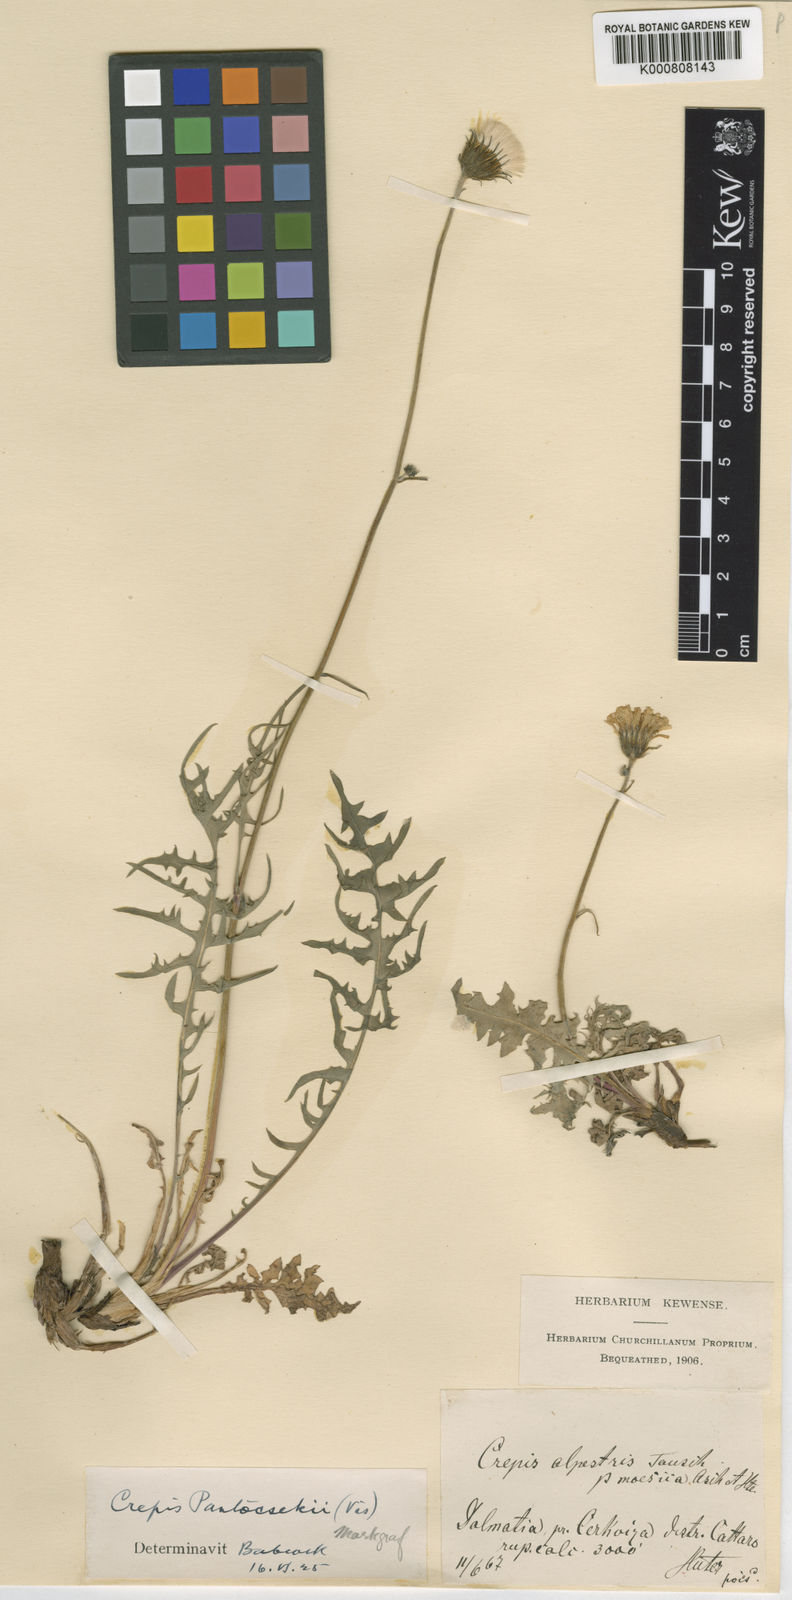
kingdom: Plantae
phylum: Tracheophyta
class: Magnoliopsida
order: Asterales
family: Asteraceae
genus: Crepis
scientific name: Crepis
